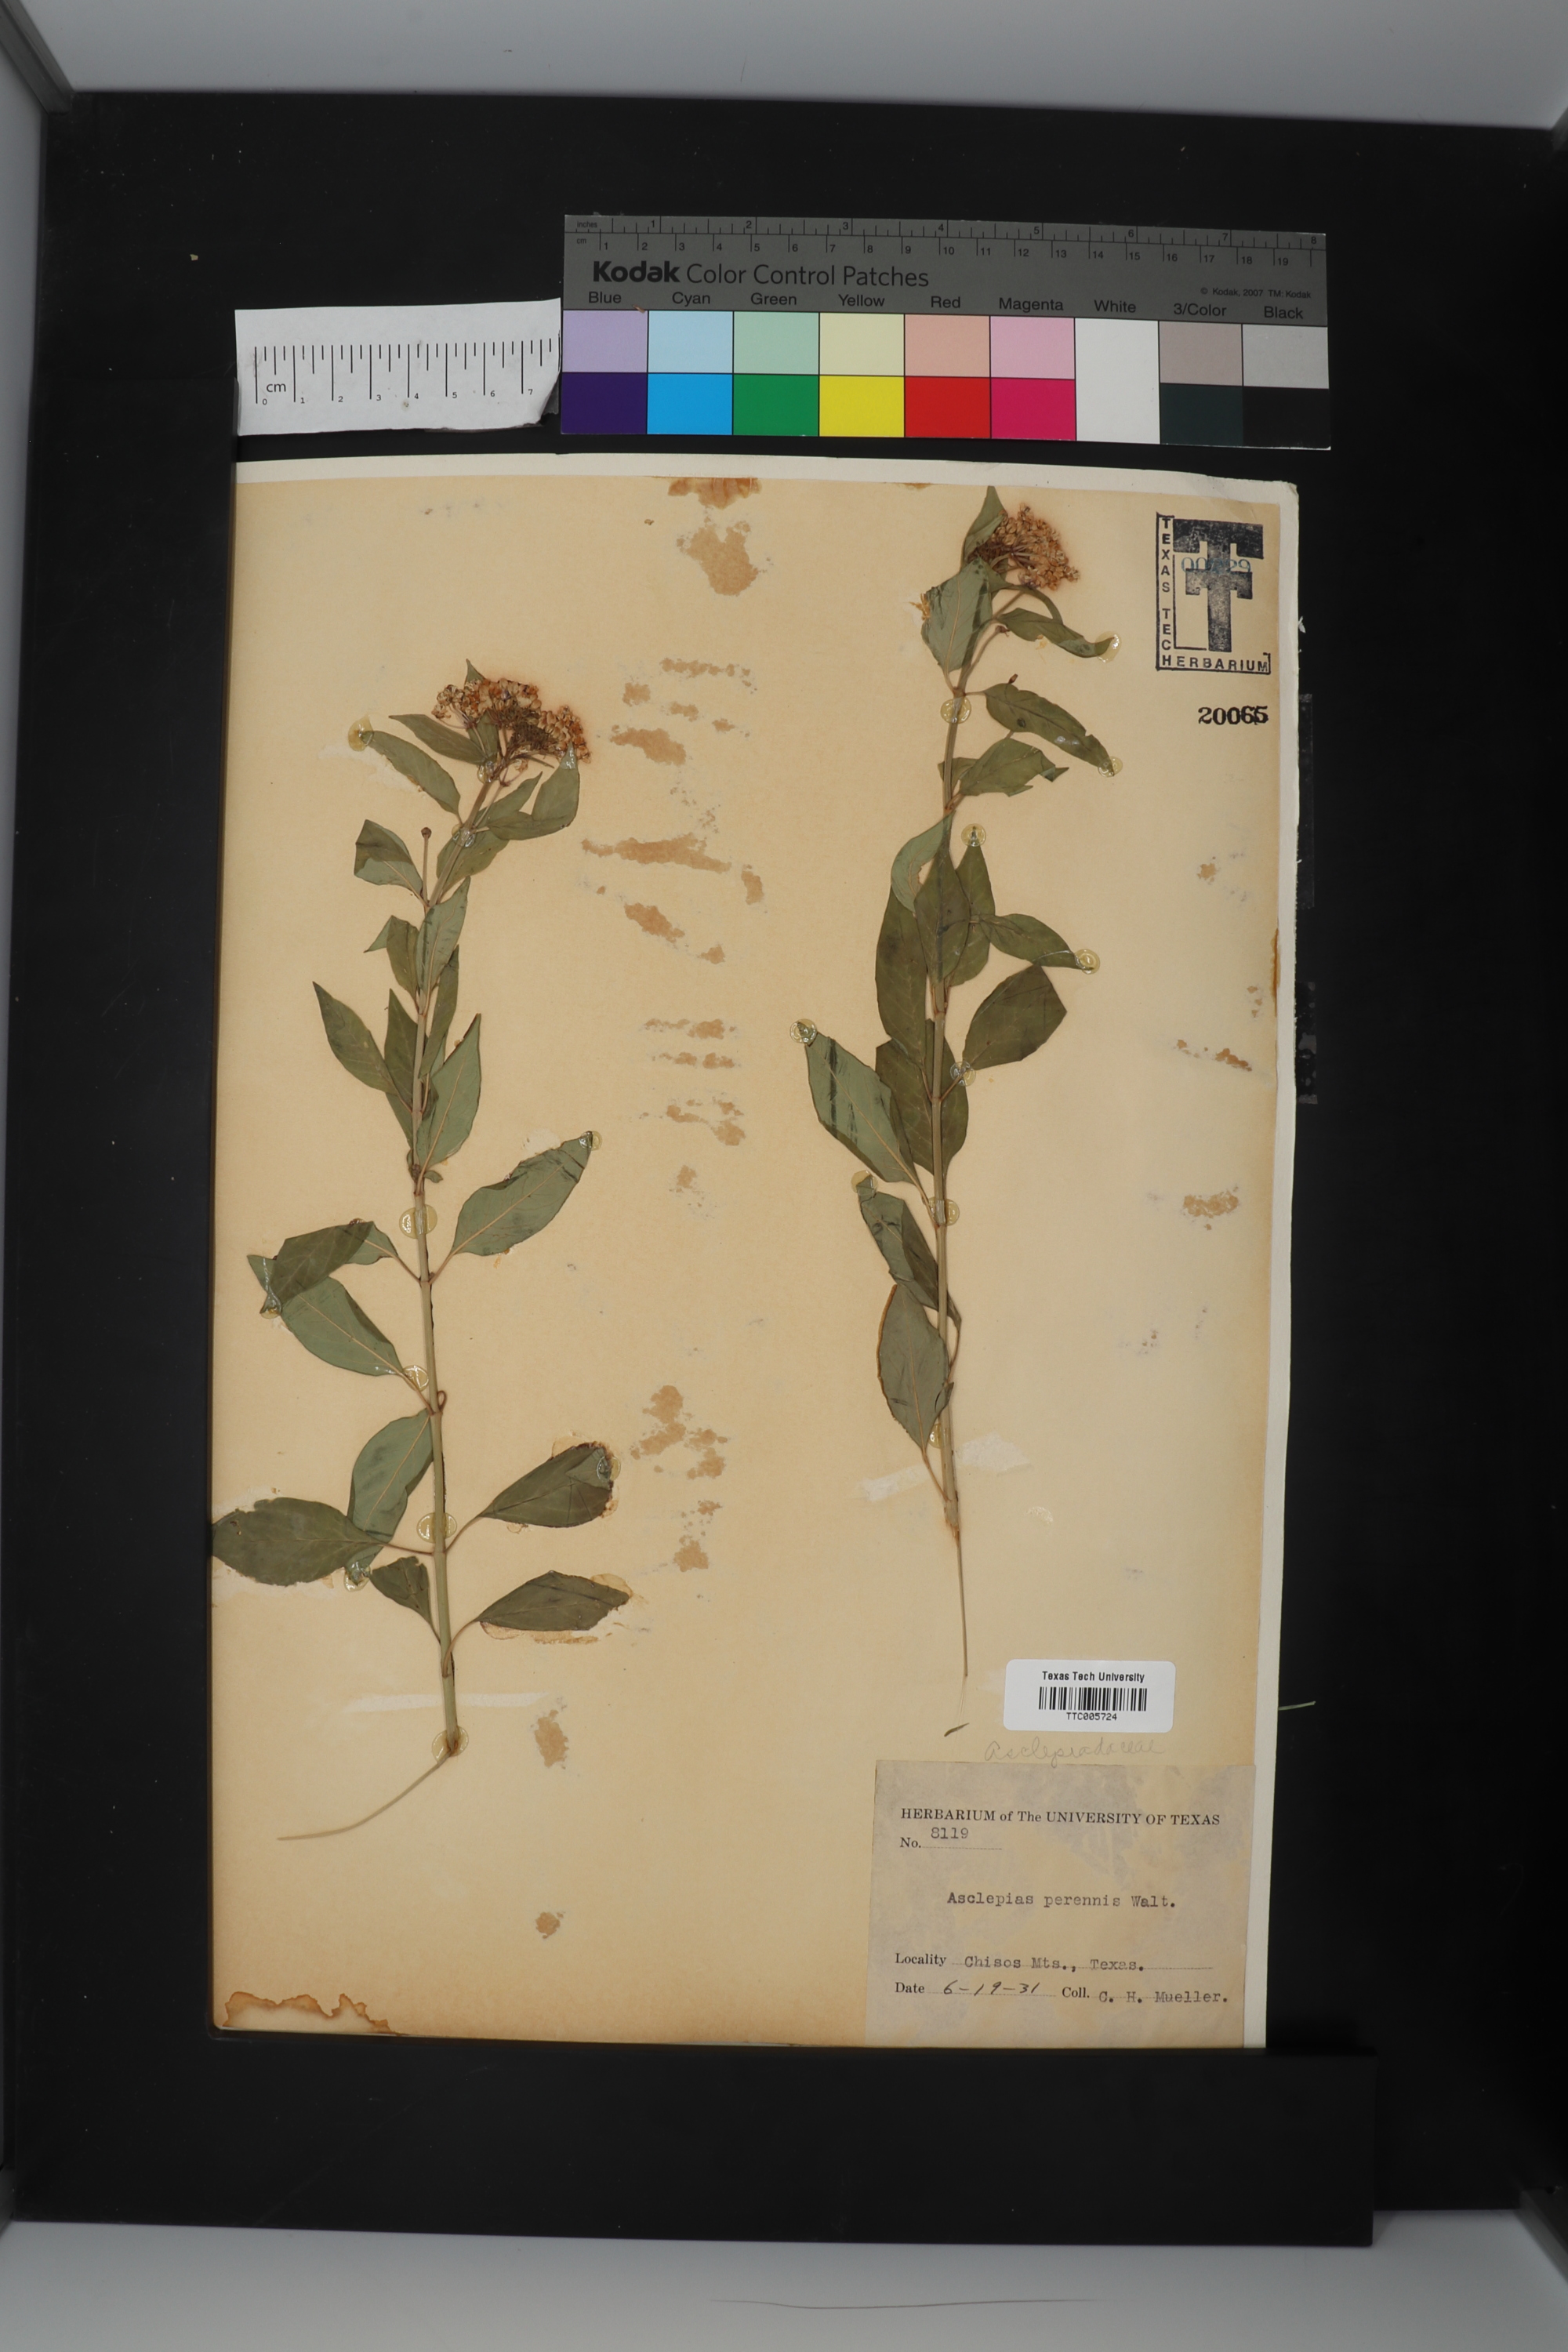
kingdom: Plantae
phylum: Tracheophyta
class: Magnoliopsida
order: Gentianales
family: Apocynaceae
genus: Asclepias
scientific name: Asclepias texana
